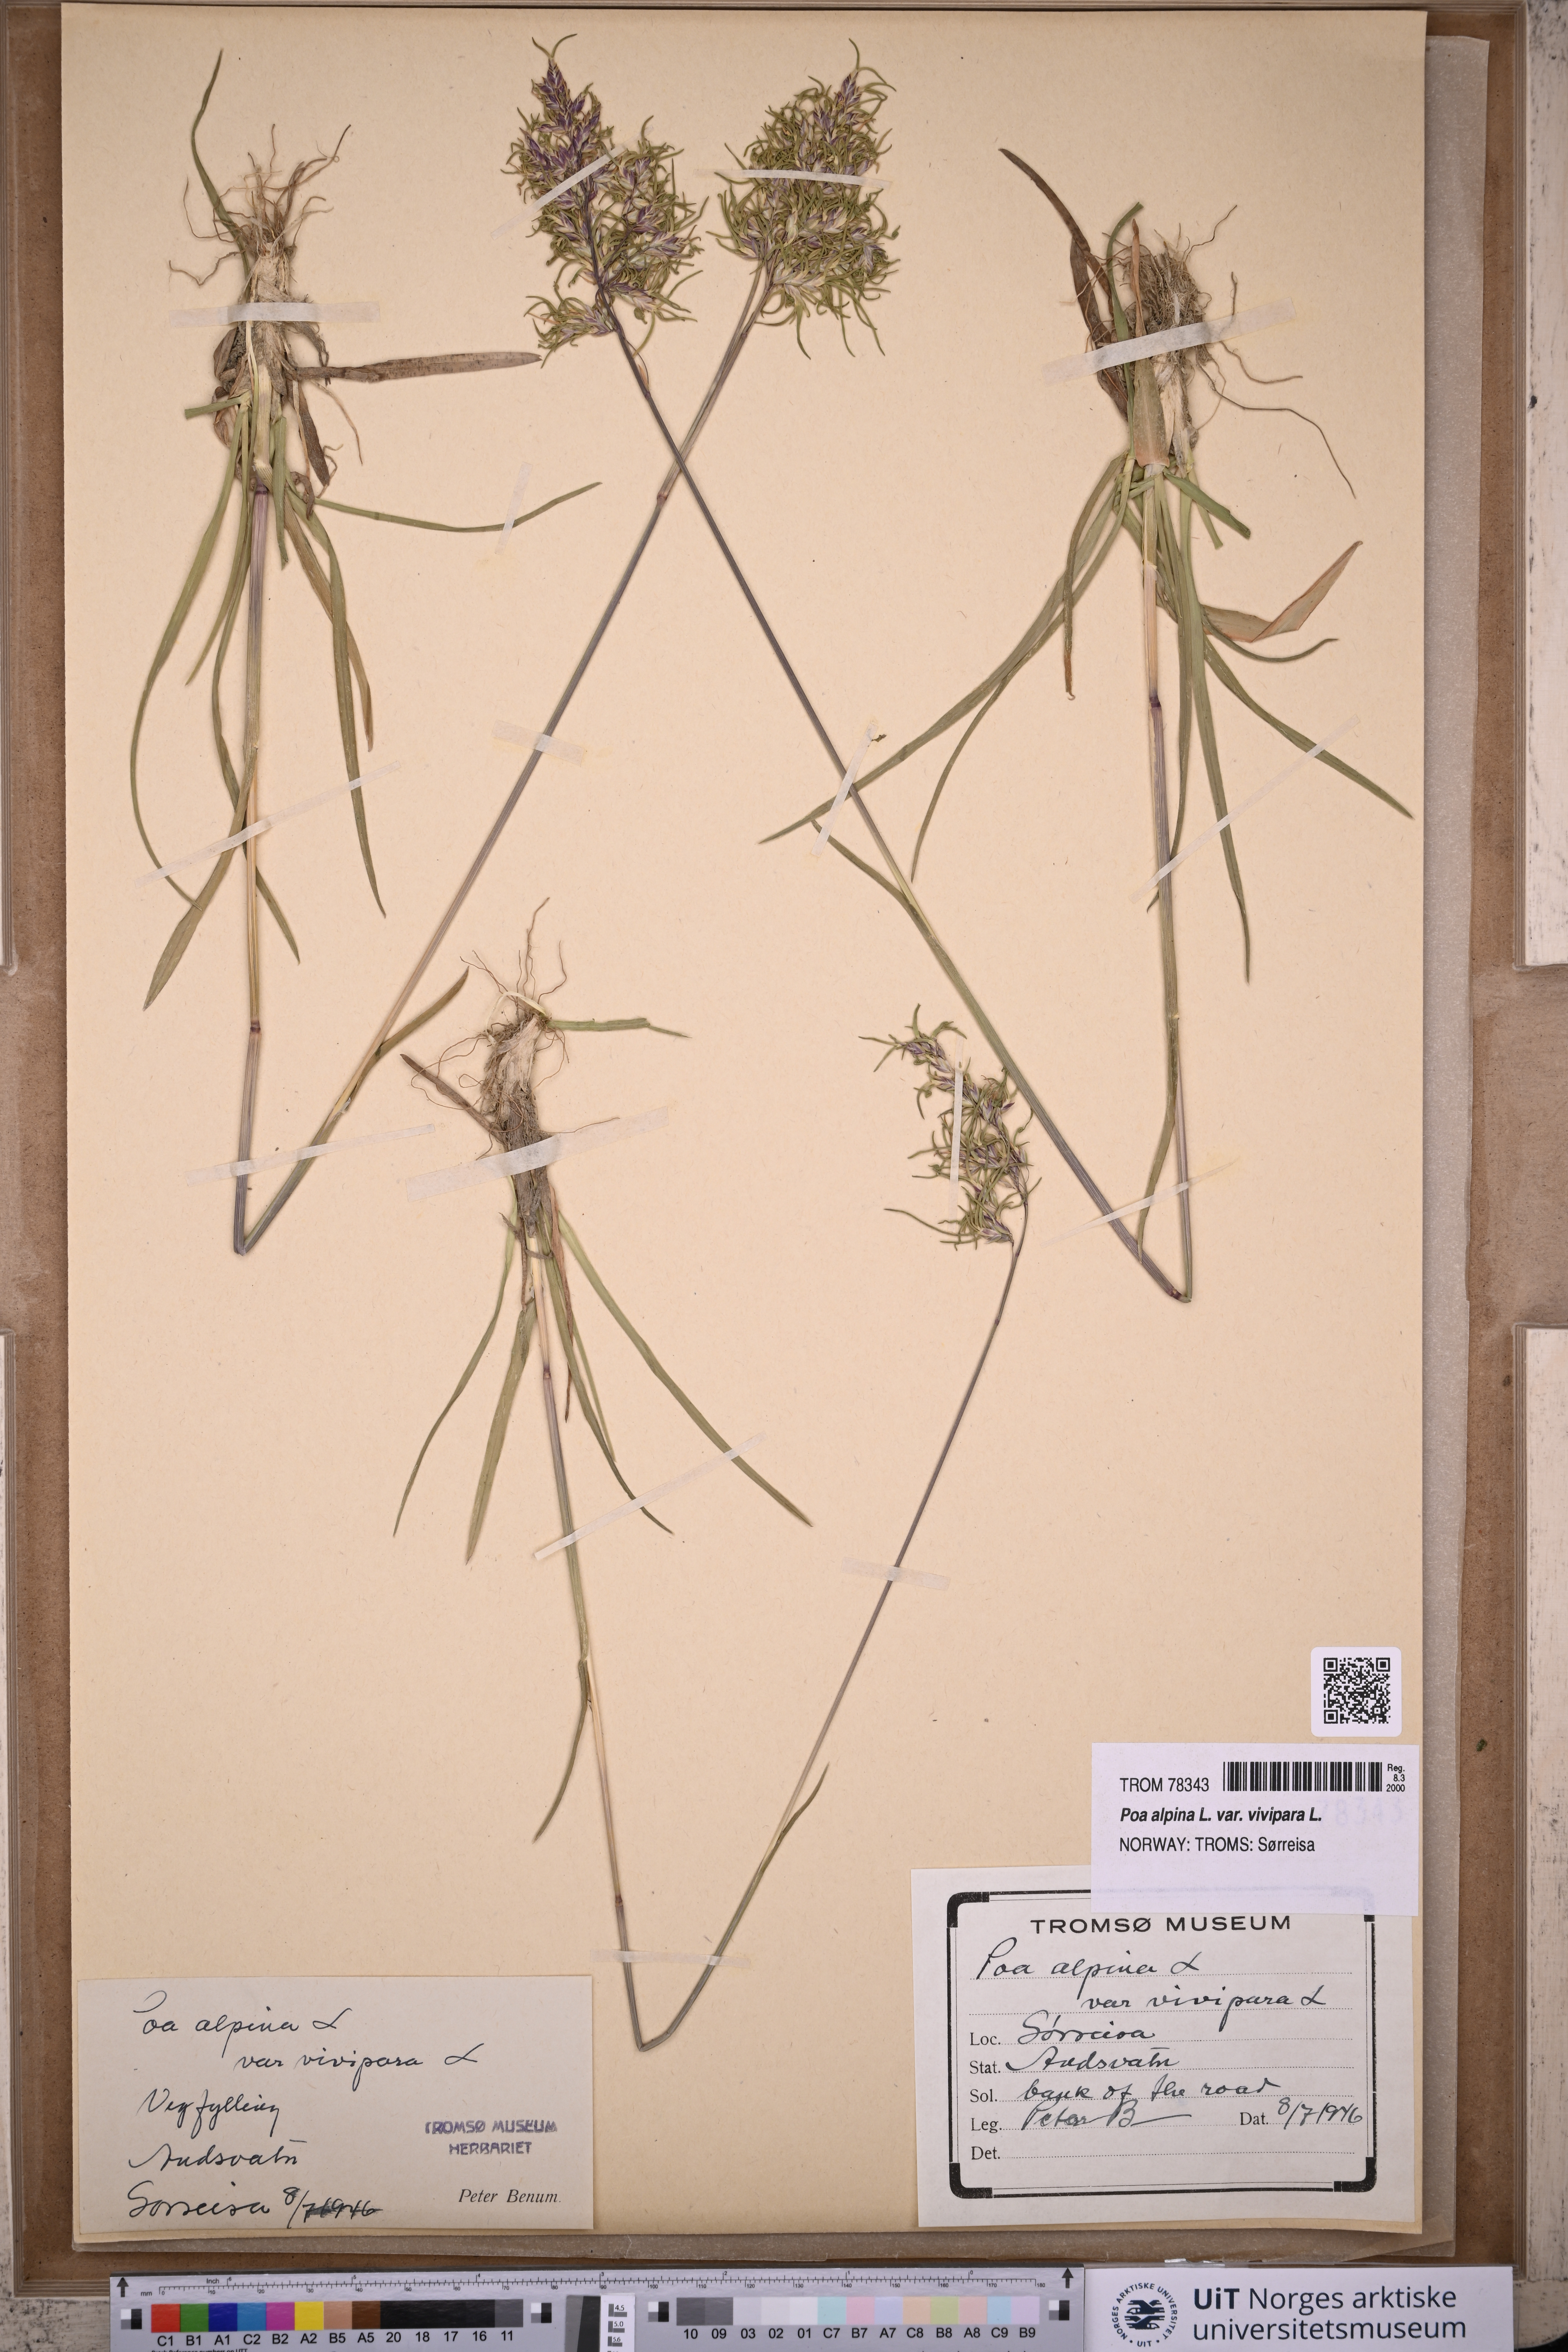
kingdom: Plantae
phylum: Tracheophyta
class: Liliopsida
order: Poales
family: Poaceae
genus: Poa
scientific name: Poa alpina
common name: Alpine bluegrass
